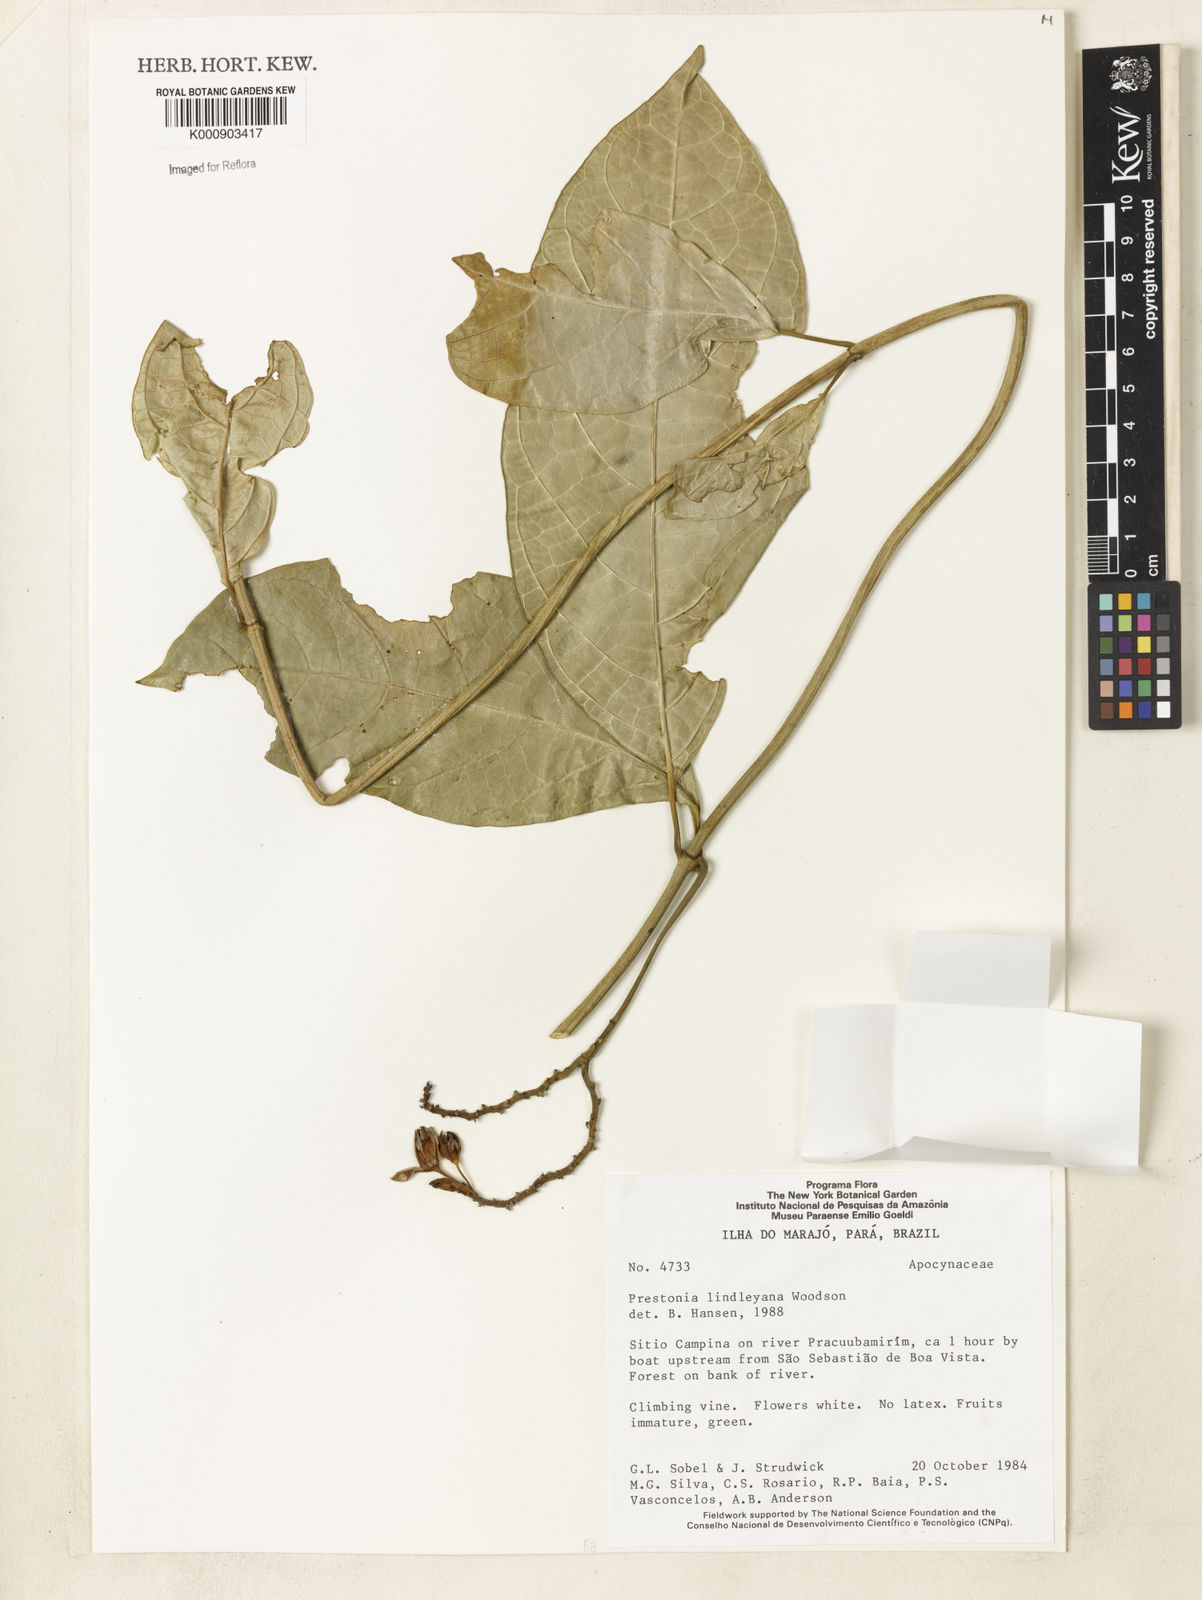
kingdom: Plantae
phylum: Tracheophyta
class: Magnoliopsida
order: Gentianales
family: Apocynaceae
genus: Prestonia
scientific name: Prestonia lindleyana
